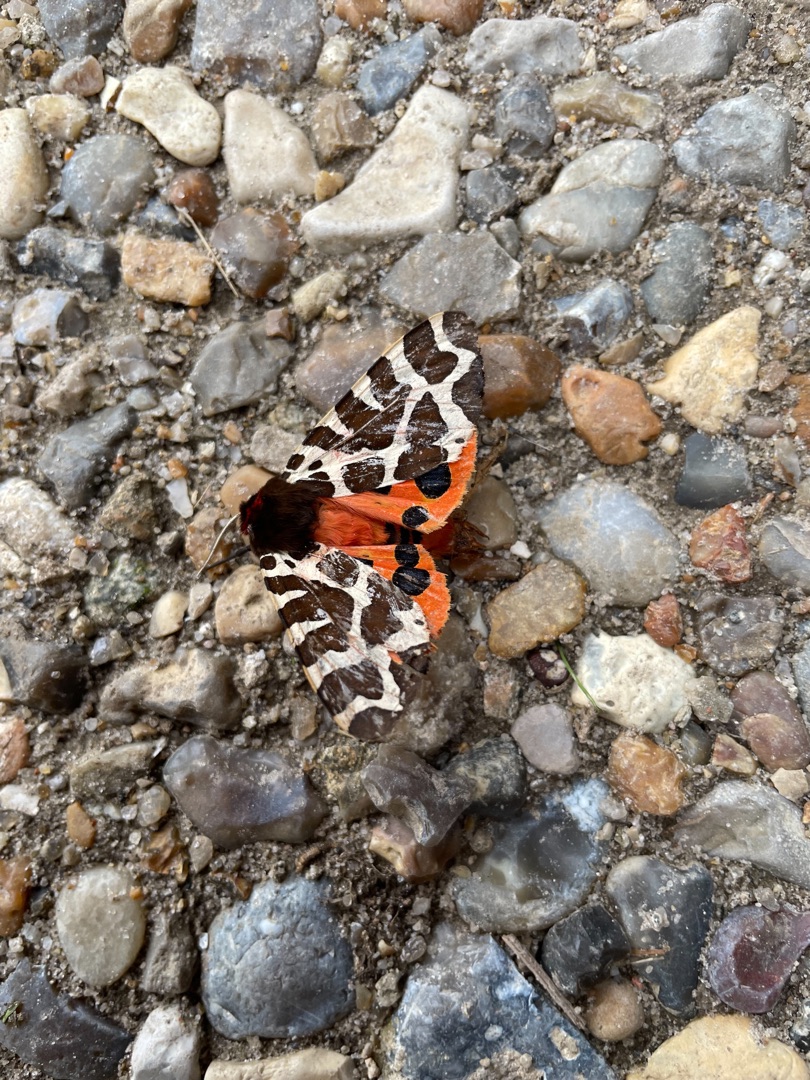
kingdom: Animalia
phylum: Arthropoda
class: Insecta
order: Lepidoptera
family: Erebidae
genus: Arctia
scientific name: Arctia caja
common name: Brun bjørn
